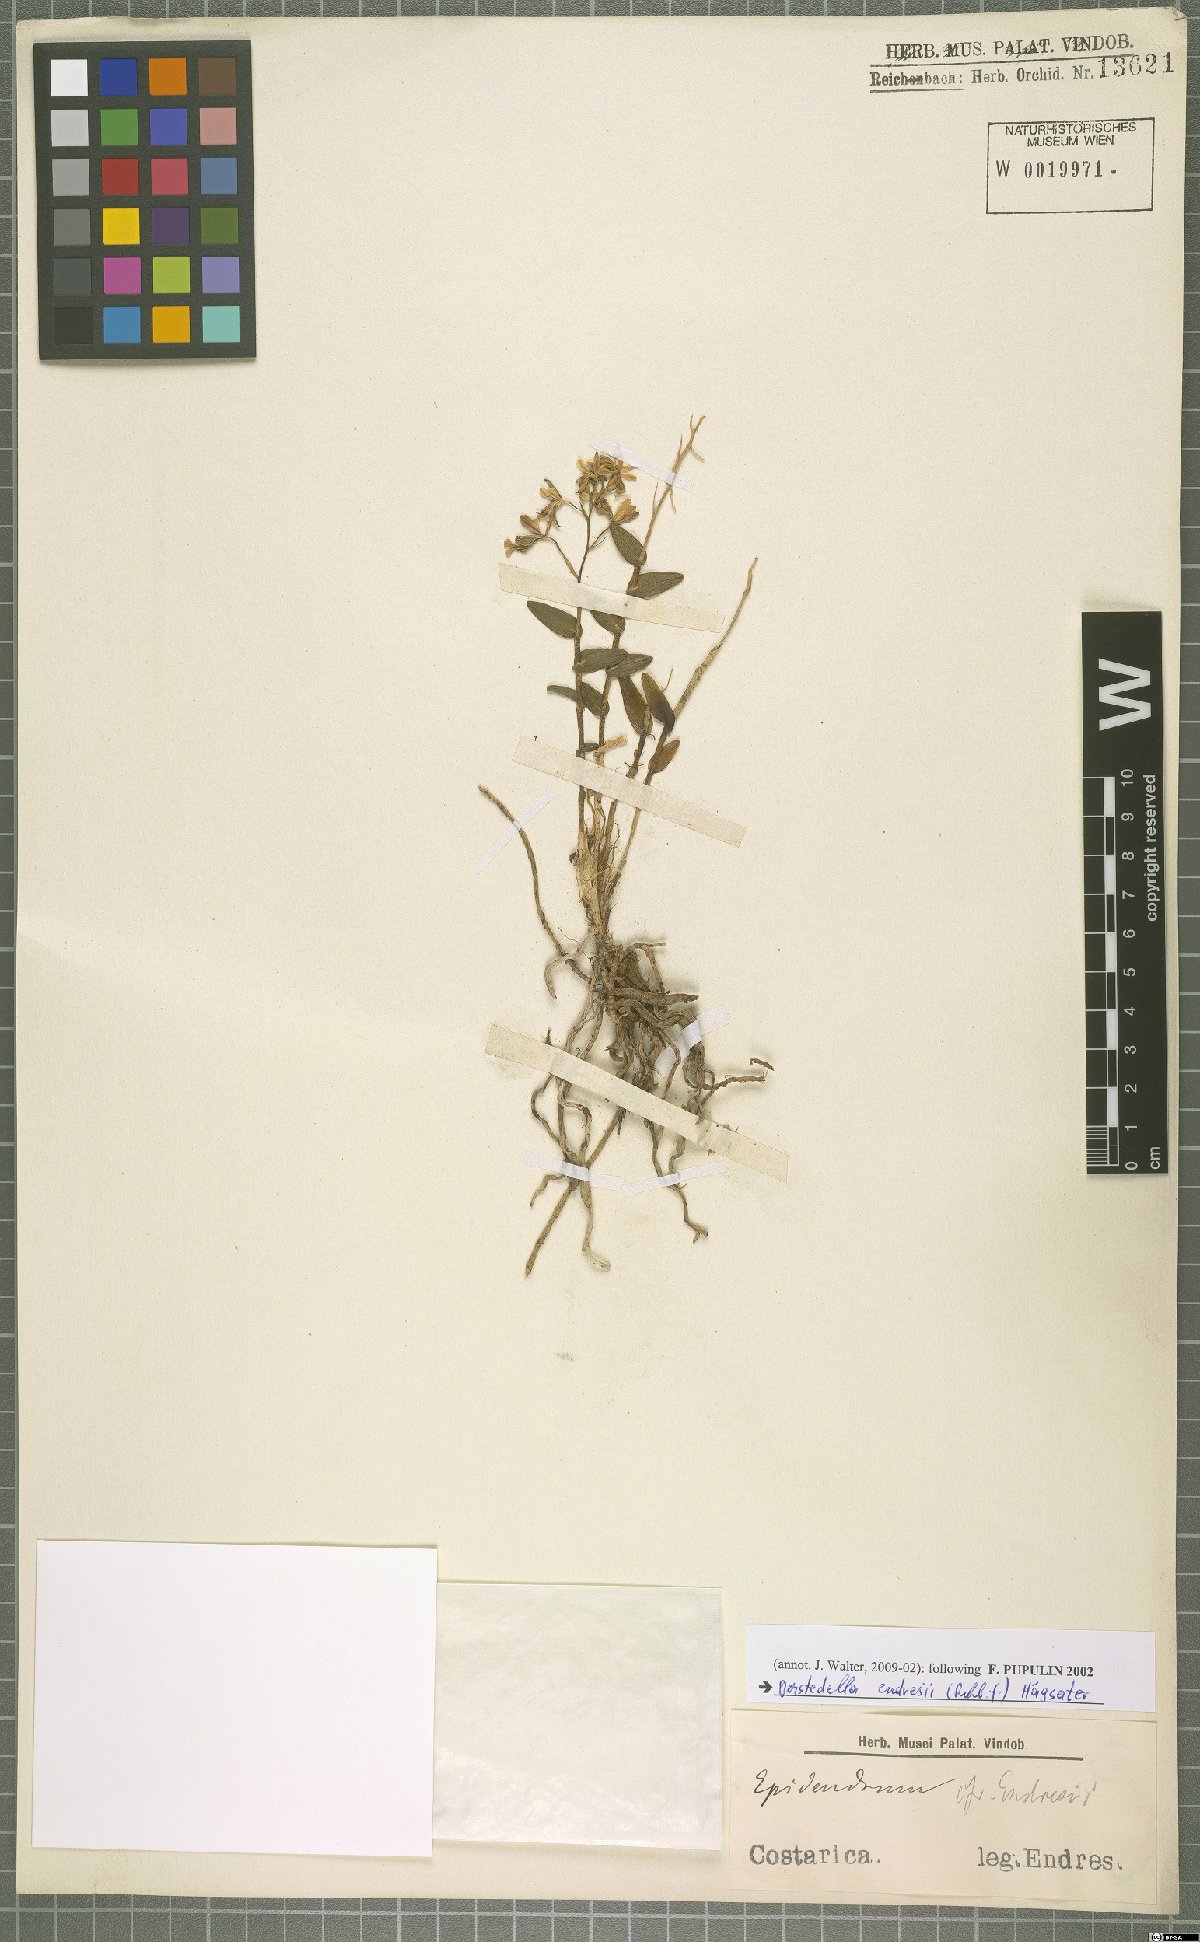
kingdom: Plantae
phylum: Tracheophyta
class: Liliopsida
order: Asparagales
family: Orchidaceae
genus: Epidendrum
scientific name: Epidendrum endresii
